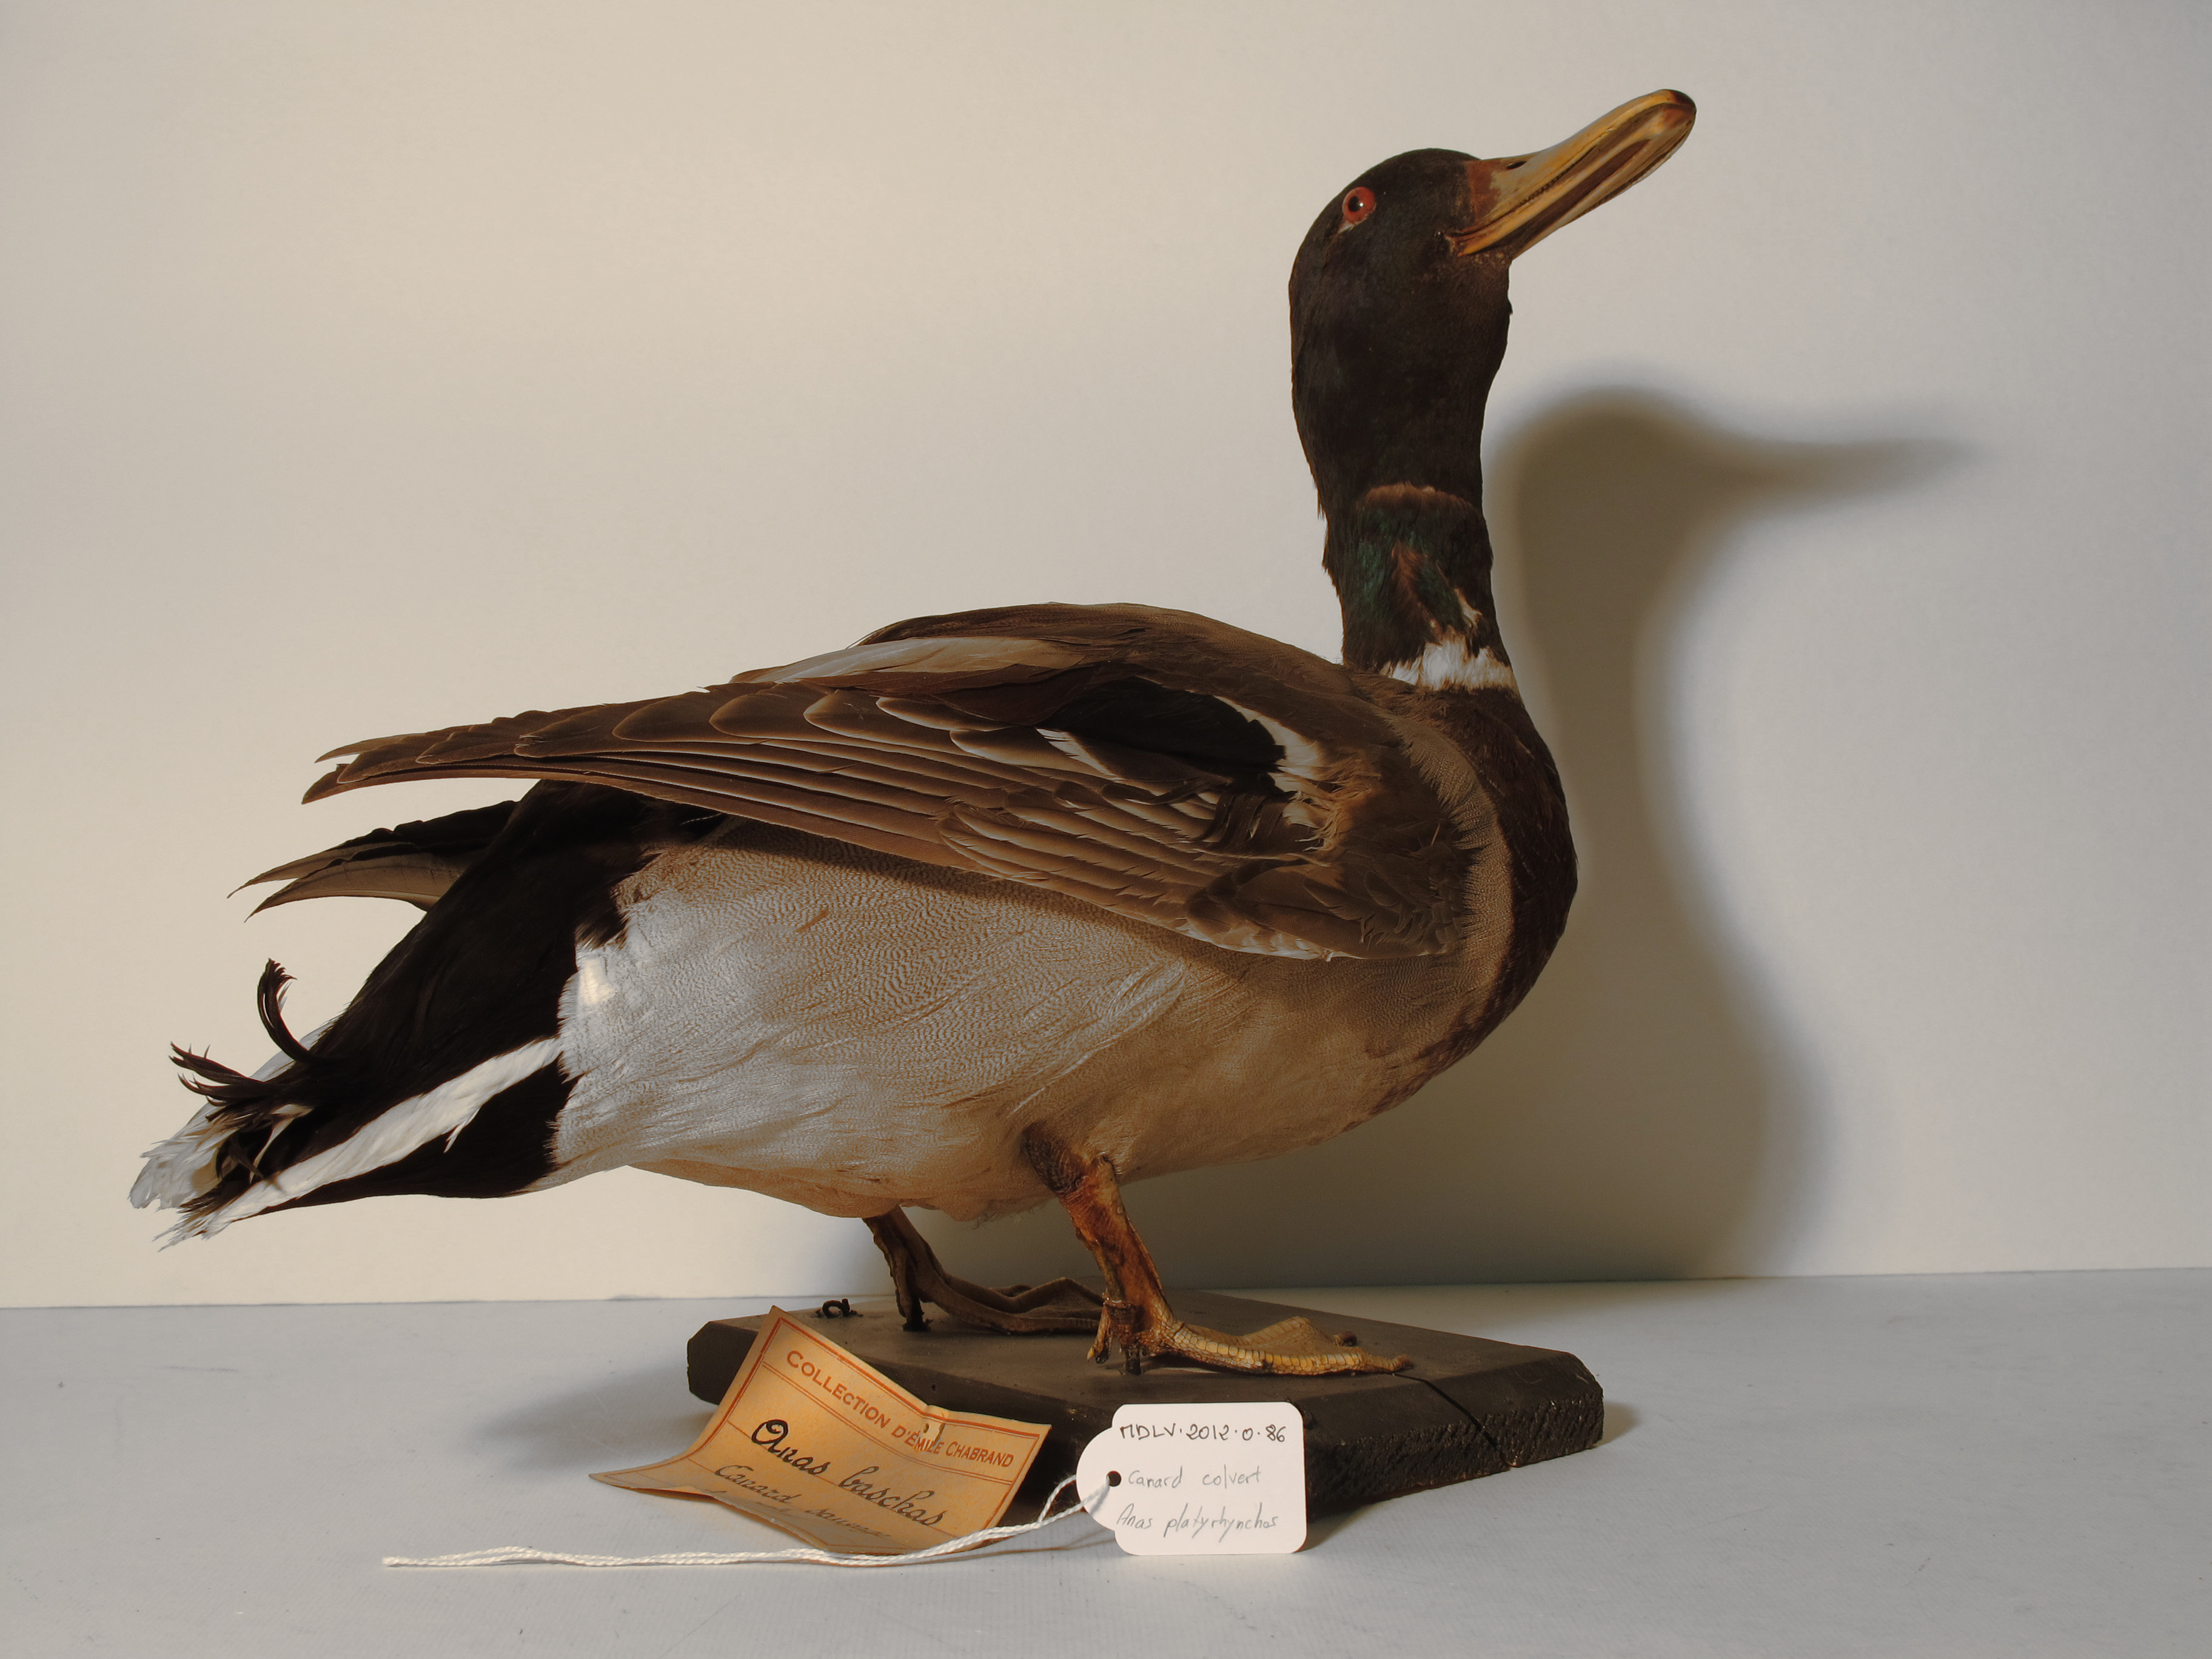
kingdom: Animalia
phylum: Chordata
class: Aves
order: Anseriformes
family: Anatidae
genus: Anas
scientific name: Anas platyrhynchos
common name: Mallard
